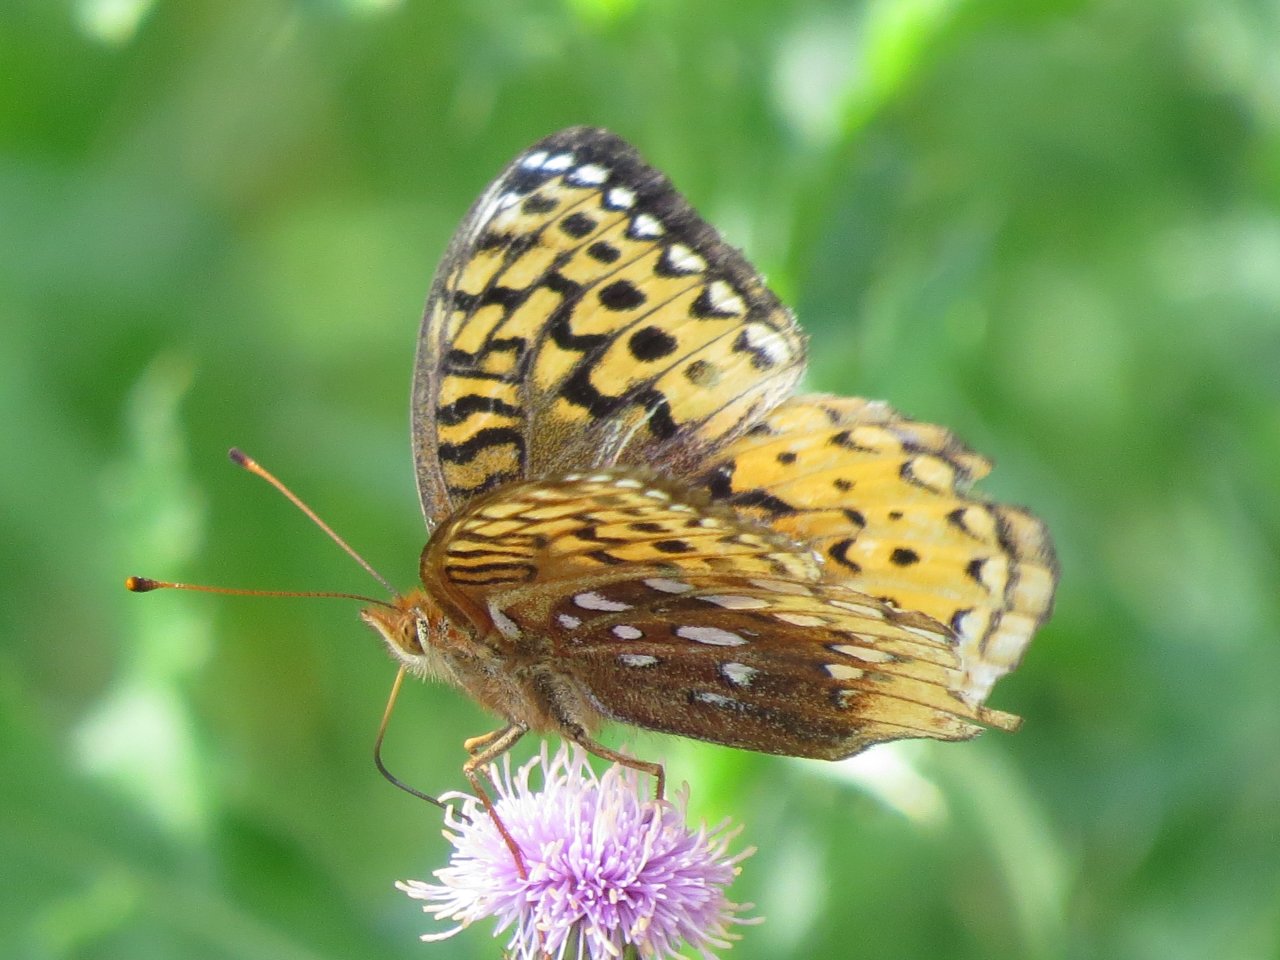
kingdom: Animalia
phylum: Arthropoda
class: Insecta
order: Lepidoptera
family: Nymphalidae
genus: Speyeria
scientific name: Speyeria cybele
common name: Great Spangled Fritillary
